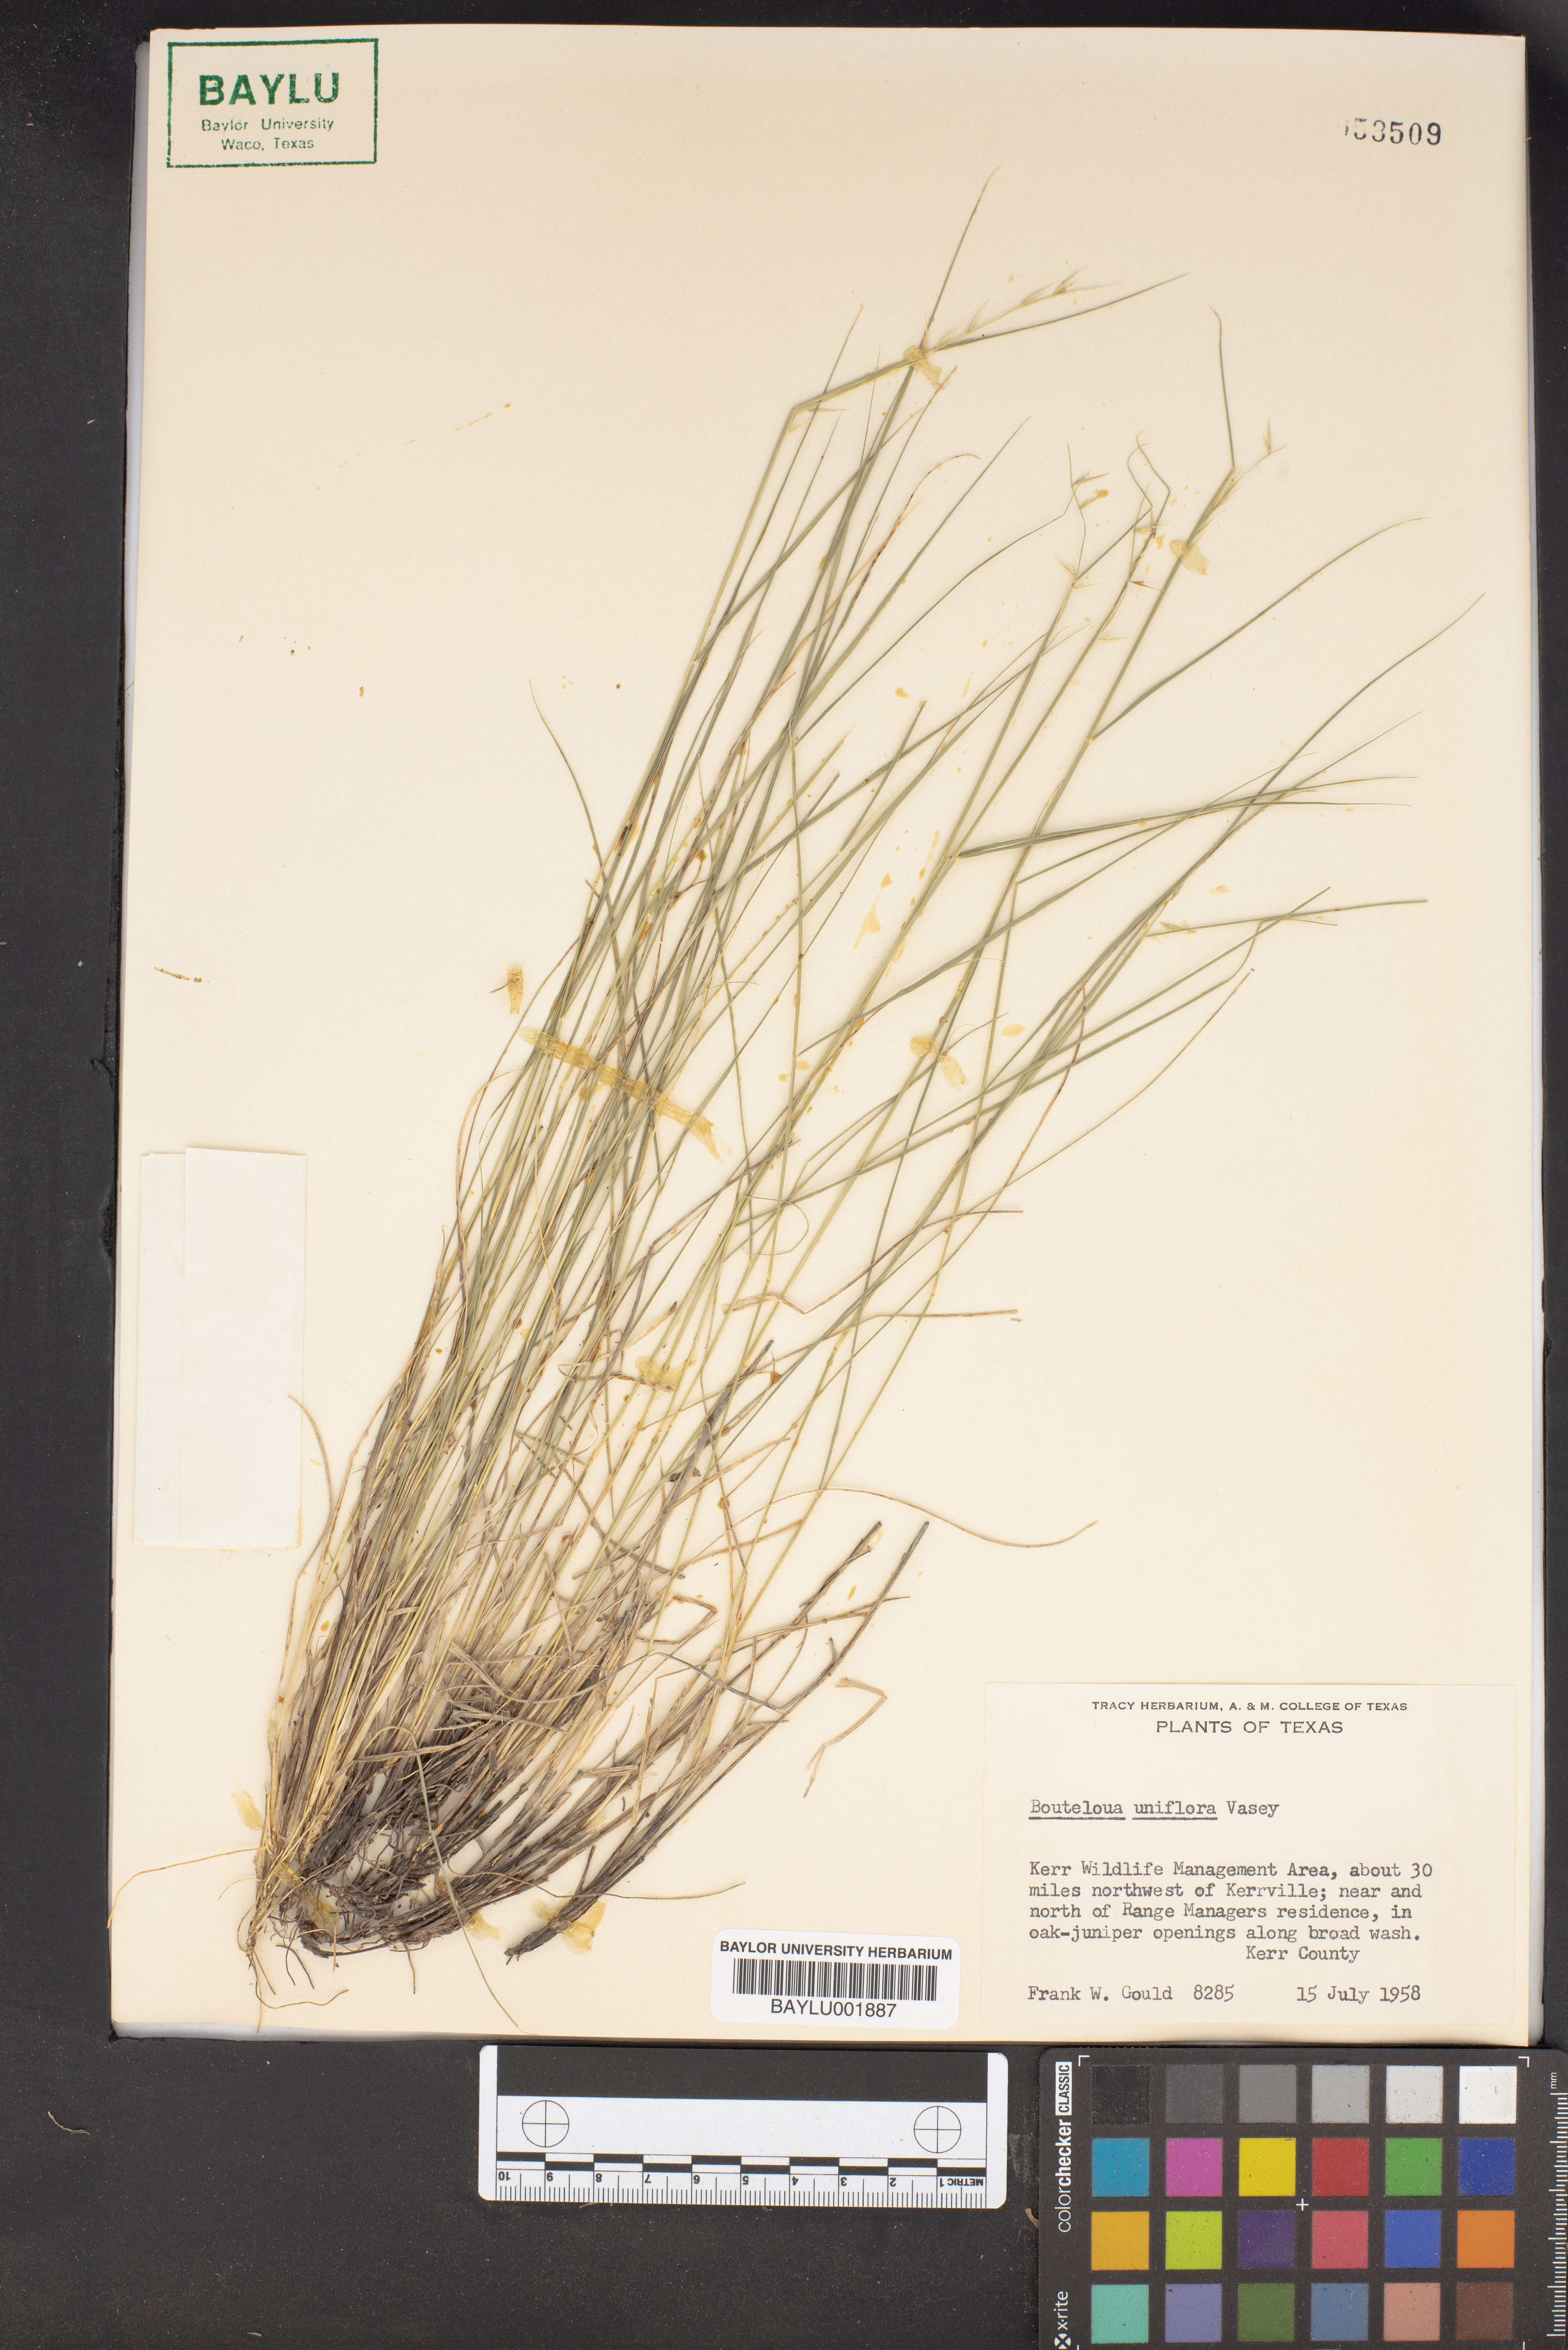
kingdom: Plantae
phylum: Tracheophyta
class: Liliopsida
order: Poales
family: Poaceae
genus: Bouteloua
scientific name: Bouteloua uniflora
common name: Neally's grama
